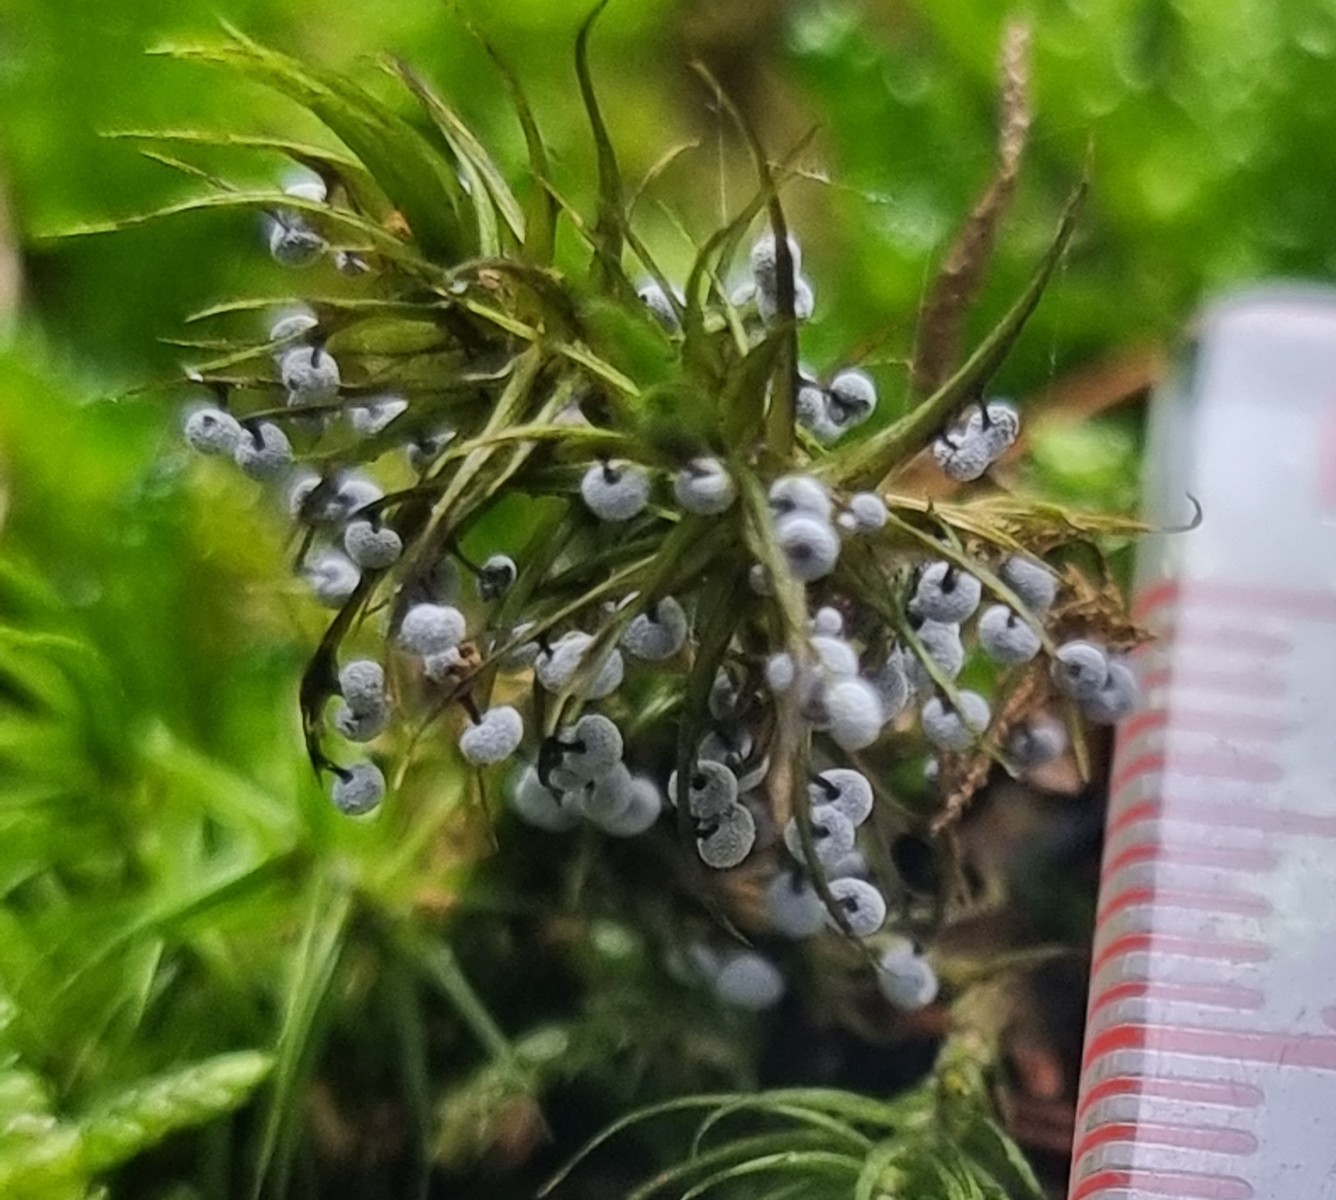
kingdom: Protozoa
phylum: Mycetozoa
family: Didymiidae
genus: Didymium
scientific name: Didymium
